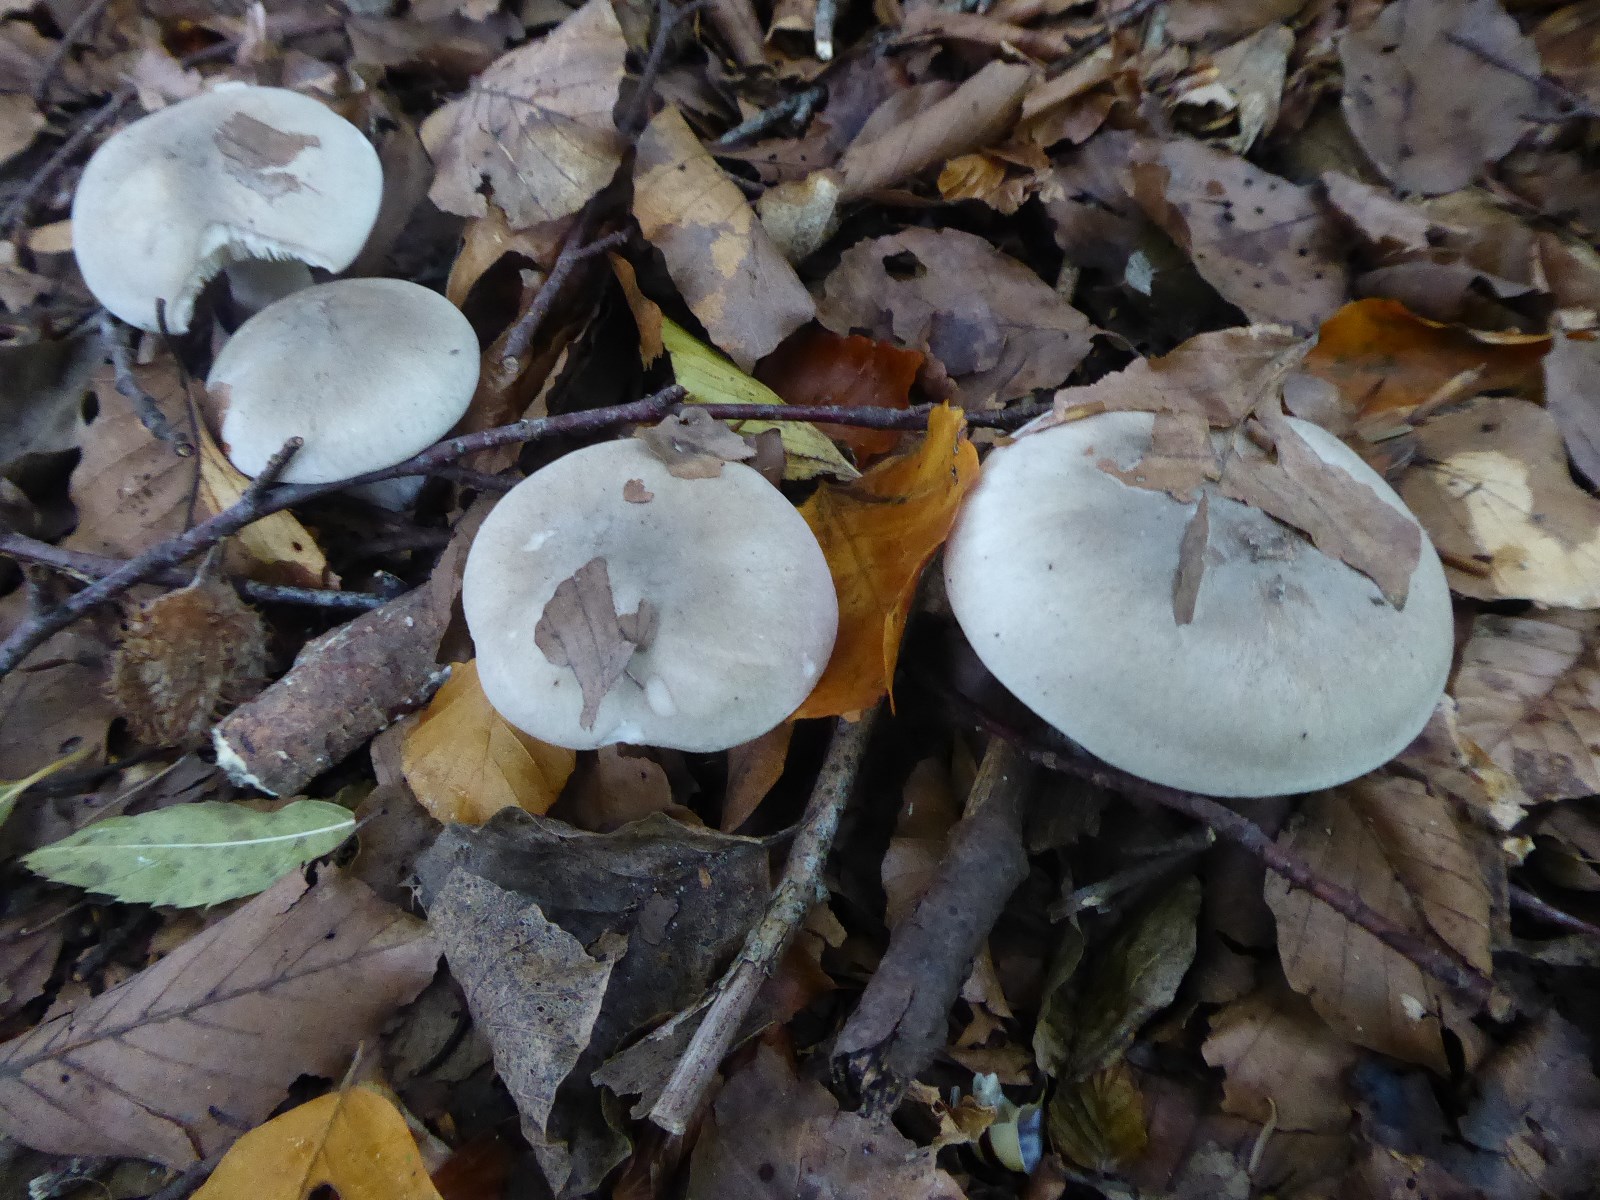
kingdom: Fungi
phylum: Basidiomycota
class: Agaricomycetes
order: Agaricales
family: Tricholomataceae
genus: Clitocybe
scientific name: Clitocybe nebularis
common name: tåge-tragthat
